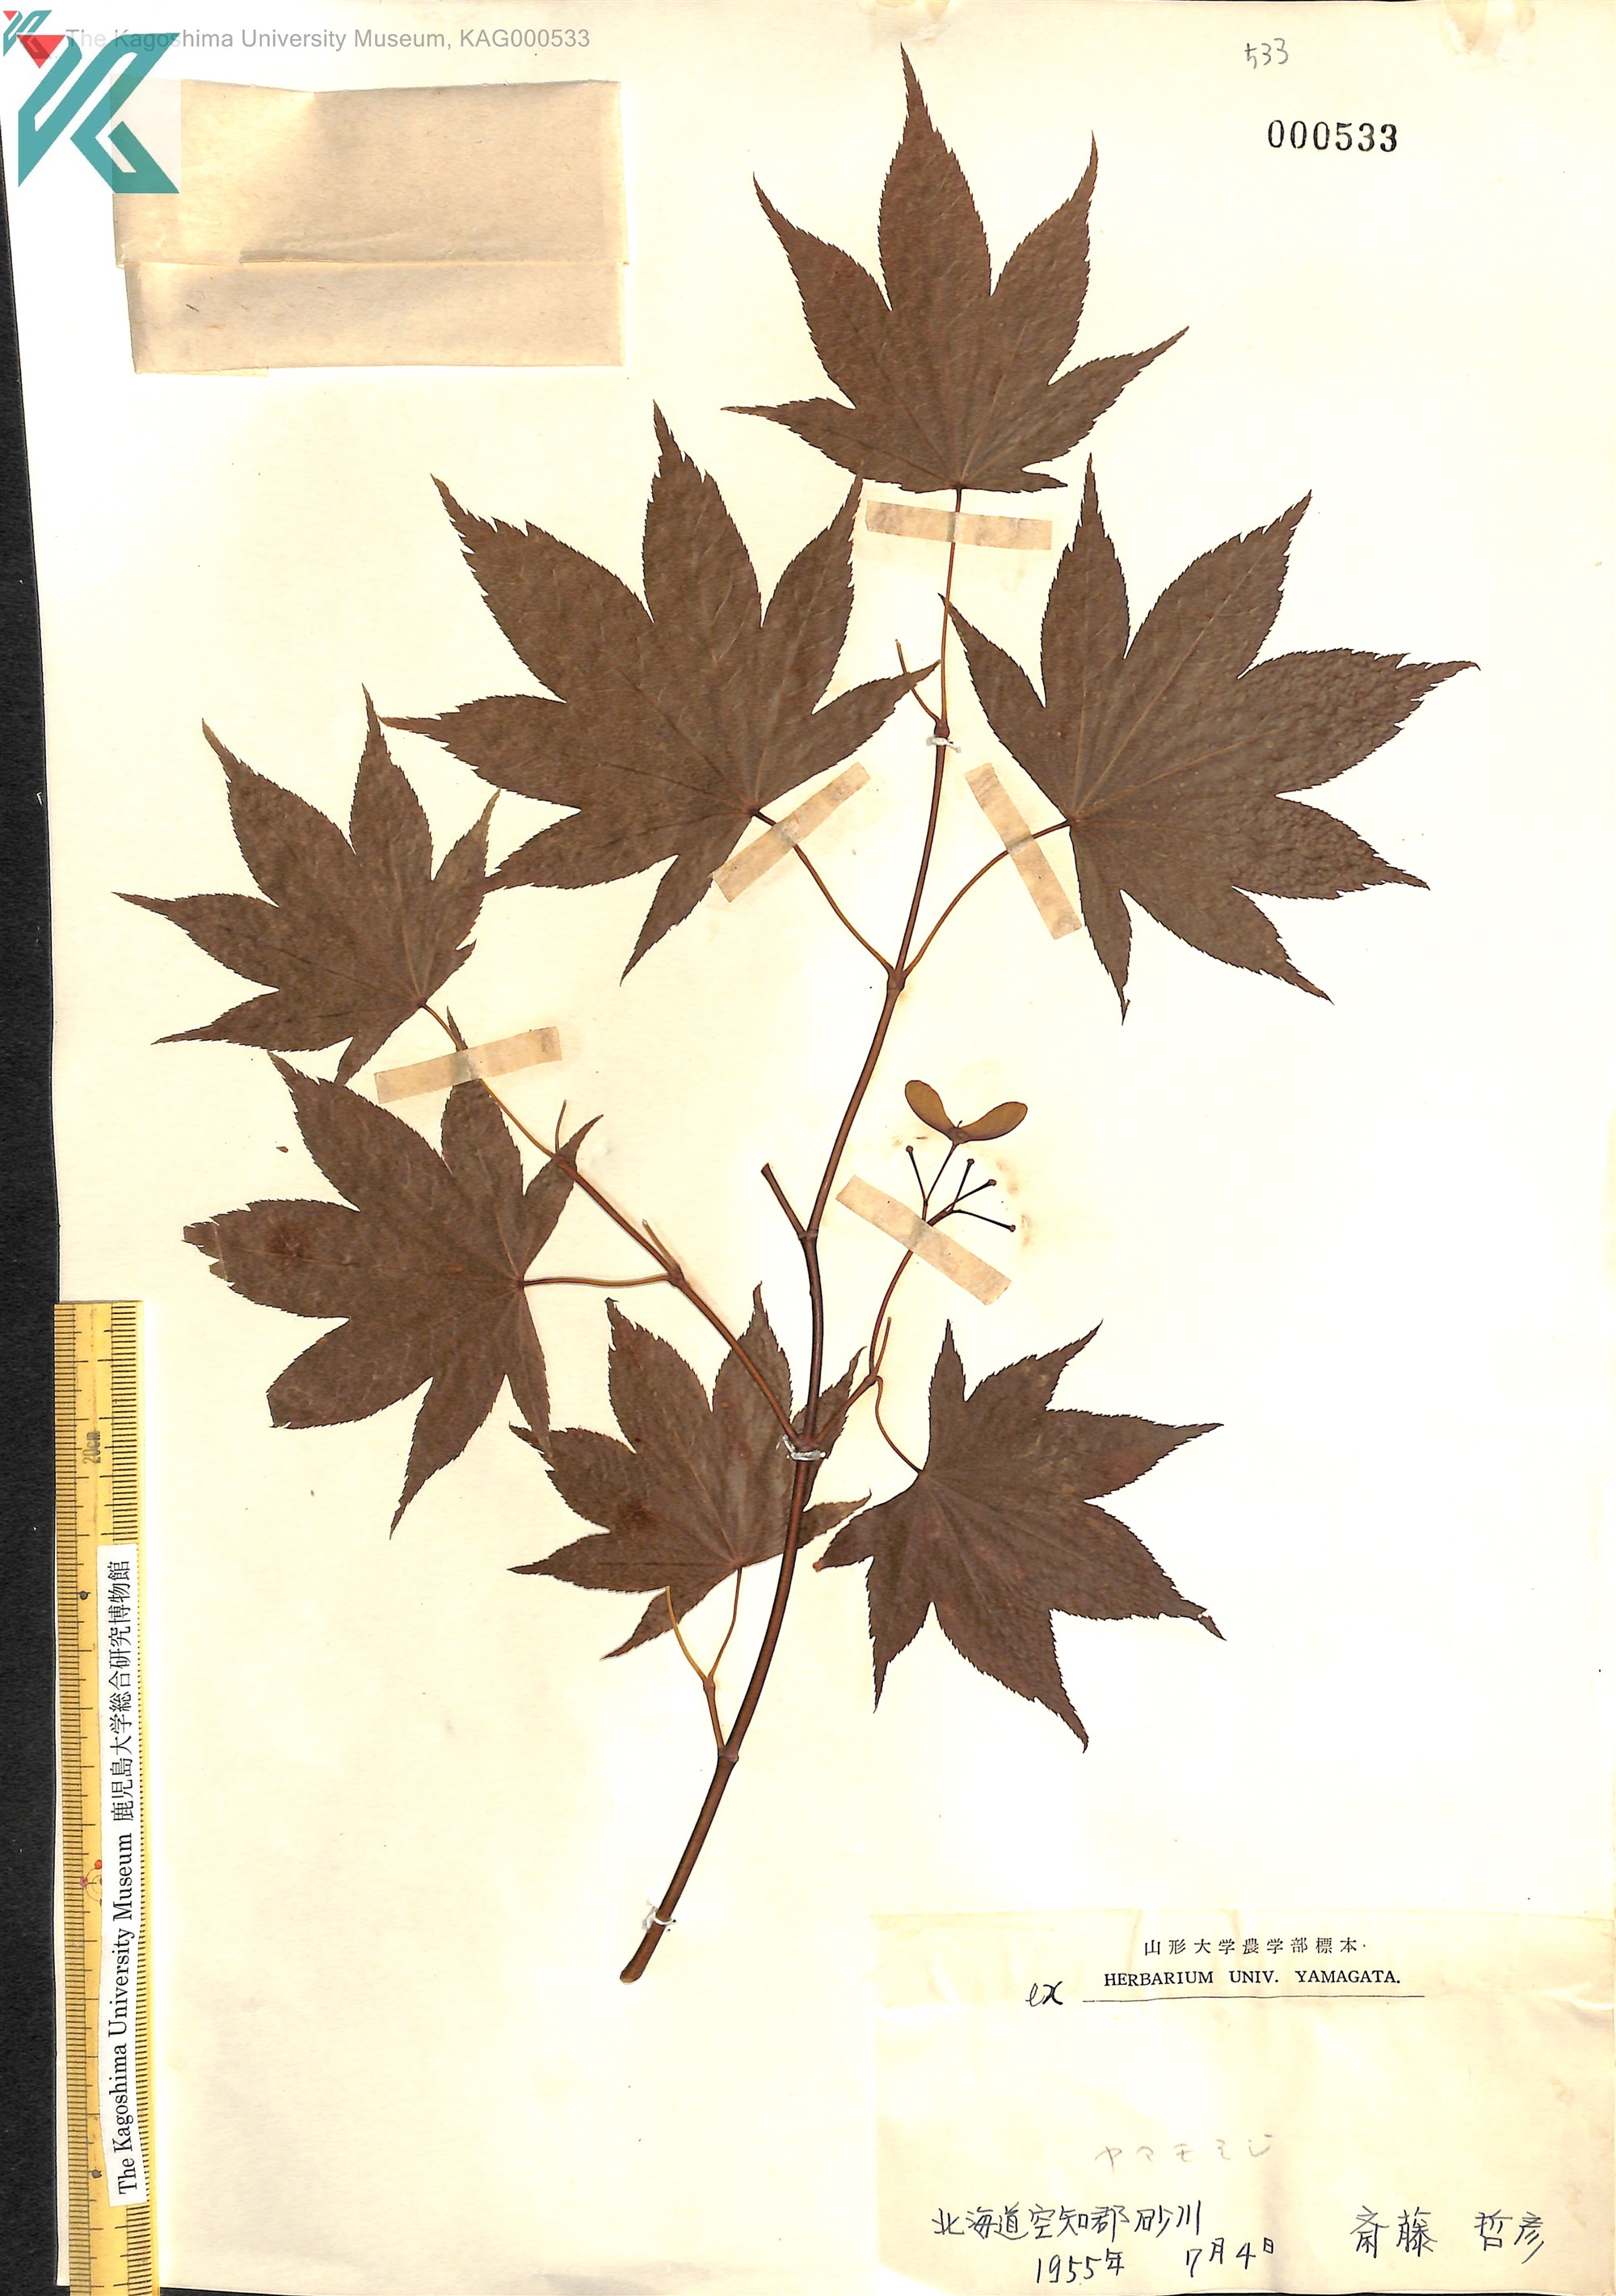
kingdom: Plantae
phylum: Tracheophyta
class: Magnoliopsida
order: Sapindales
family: Sapindaceae
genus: Acer
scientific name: Acer palmatum
